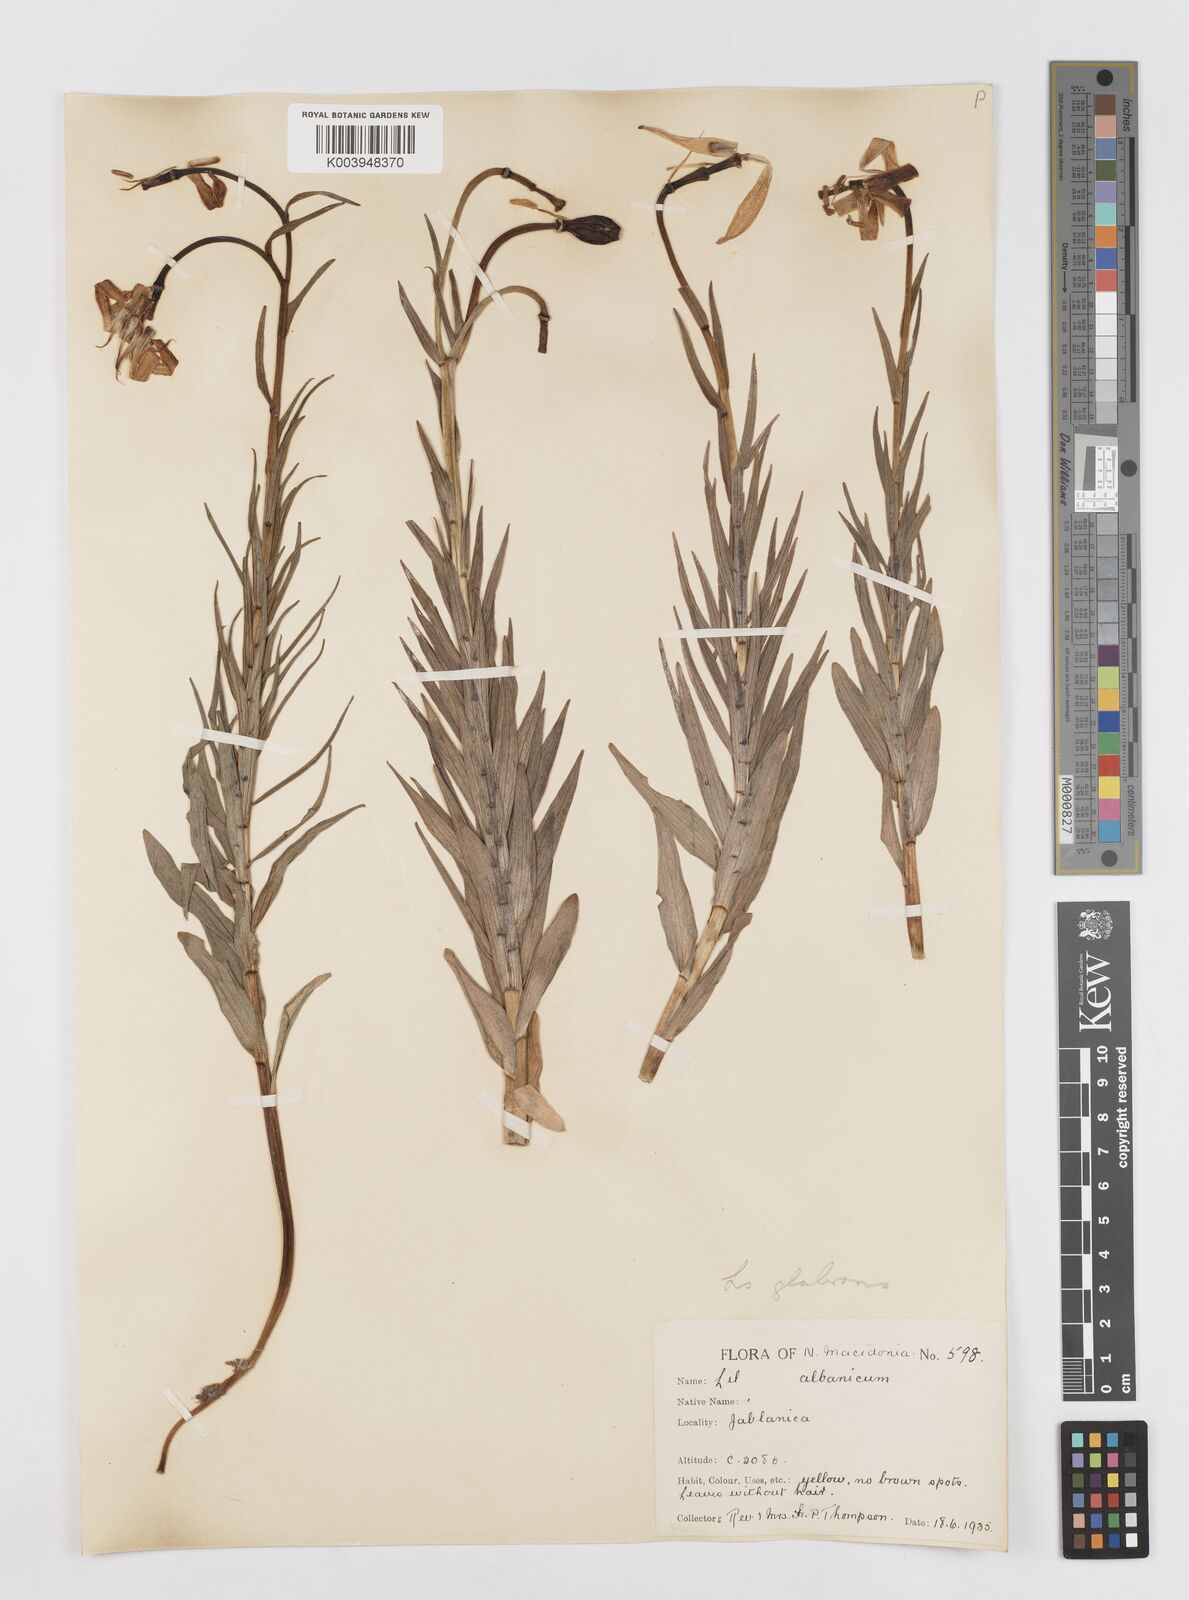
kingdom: Plantae
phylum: Tracheophyta
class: Liliopsida
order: Liliales
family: Liliaceae
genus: Lilium
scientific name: Lilium carniolicum
